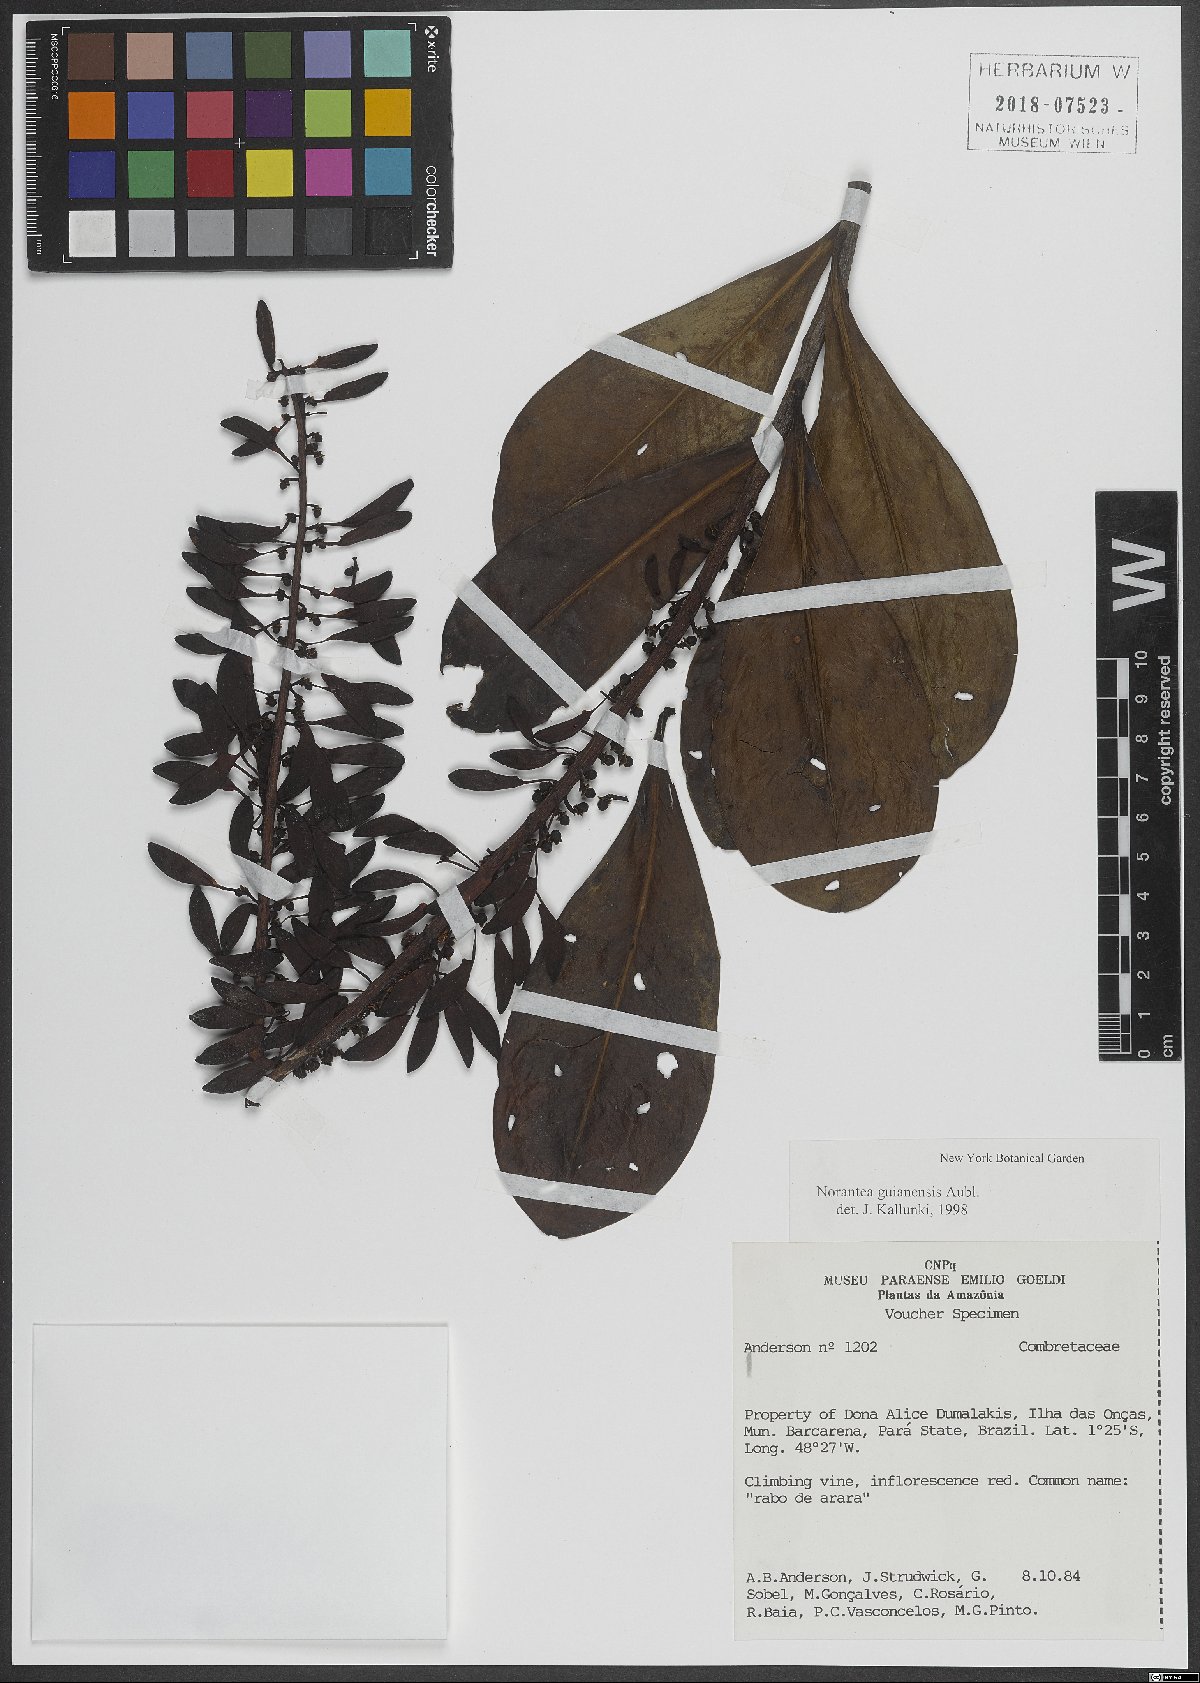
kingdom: Plantae
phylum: Tracheophyta
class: Magnoliopsida
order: Ericales
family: Marcgraviaceae
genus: Norantea
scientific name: Norantea guianensis
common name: Red hot poker vine
